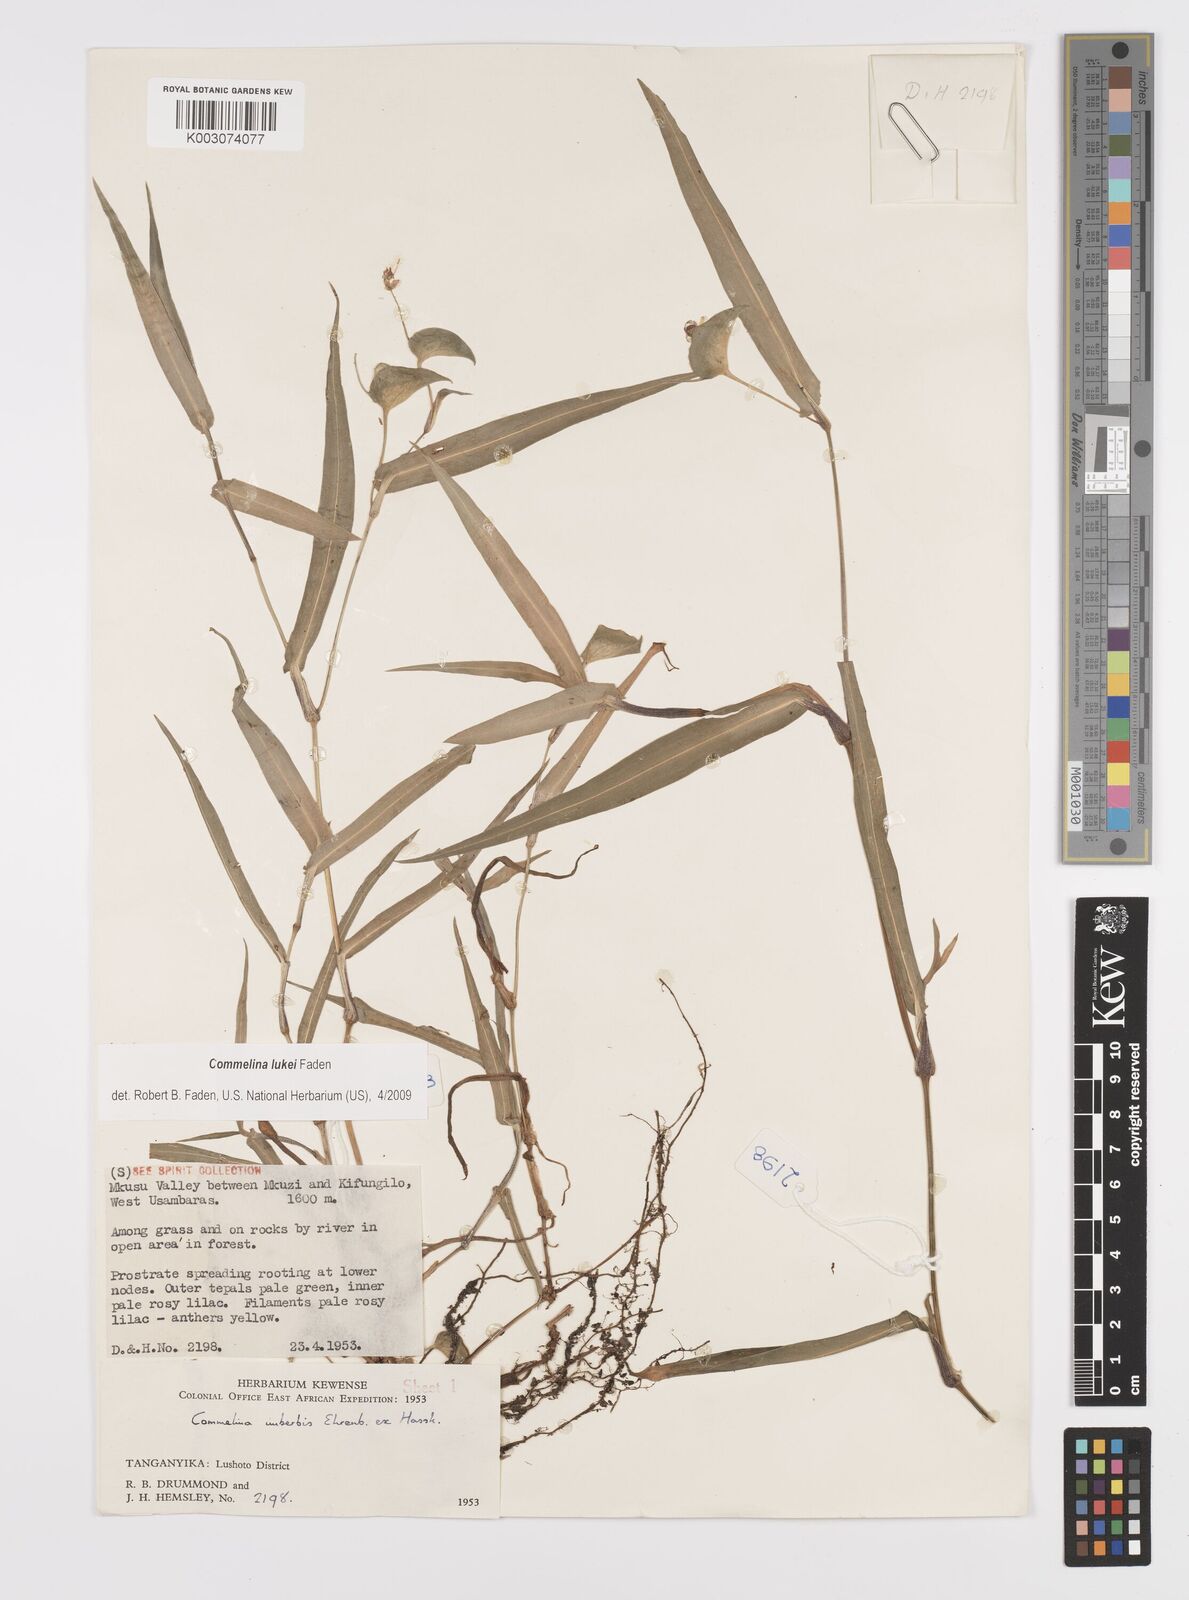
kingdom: Plantae
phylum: Tracheophyta
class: Liliopsida
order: Commelinales
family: Commelinaceae
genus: Commelina
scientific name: Commelina lukei
